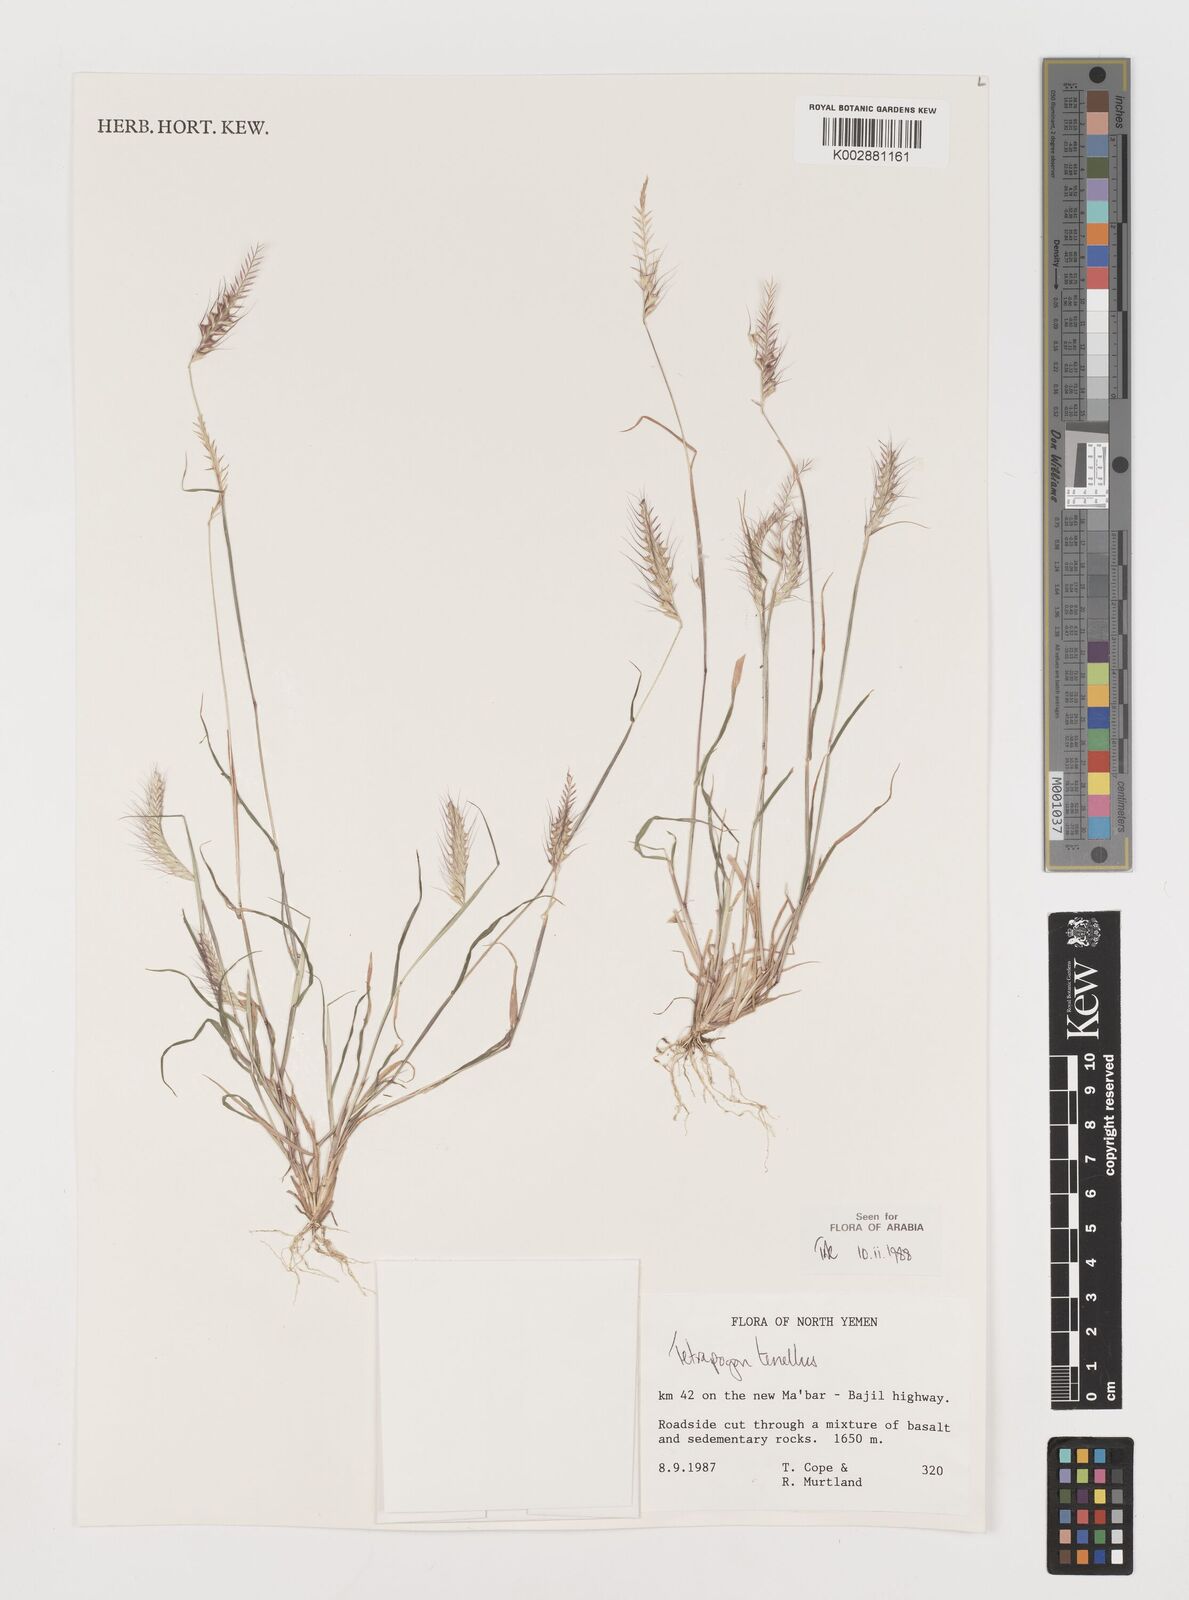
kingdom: Plantae
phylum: Tracheophyta
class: Liliopsida
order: Poales
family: Poaceae
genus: Tetrapogon
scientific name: Tetrapogon tenellus
